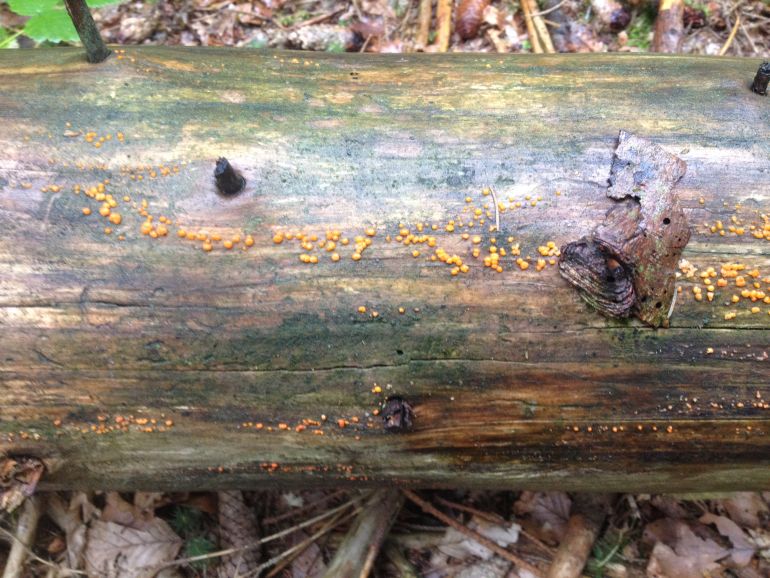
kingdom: Fungi
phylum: Basidiomycota
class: Dacrymycetes
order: Dacrymycetales
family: Dacrymycetaceae
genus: Dacrymyces
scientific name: Dacrymyces stillatus
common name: almindelig tåresvamp
